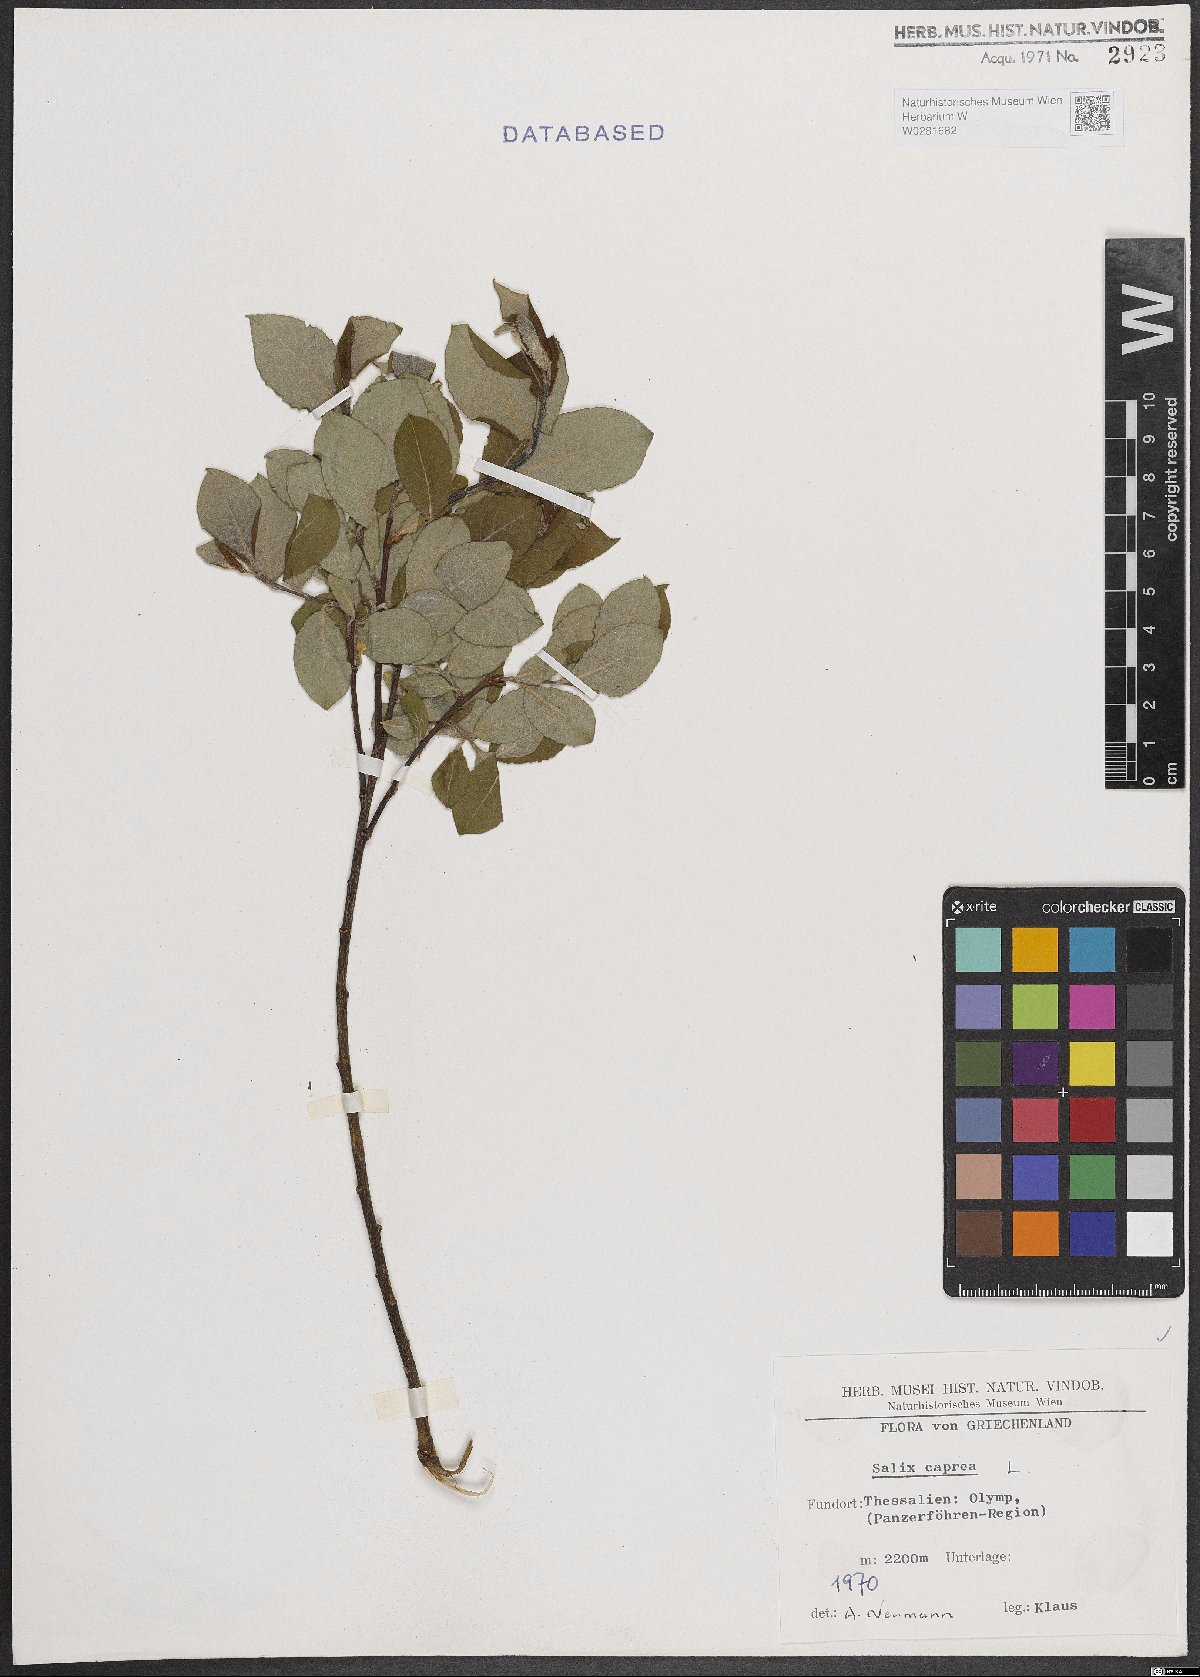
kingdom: Plantae
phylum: Tracheophyta
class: Magnoliopsida
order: Malpighiales
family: Salicaceae
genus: Salix
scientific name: Salix caprea
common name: Goat willow
